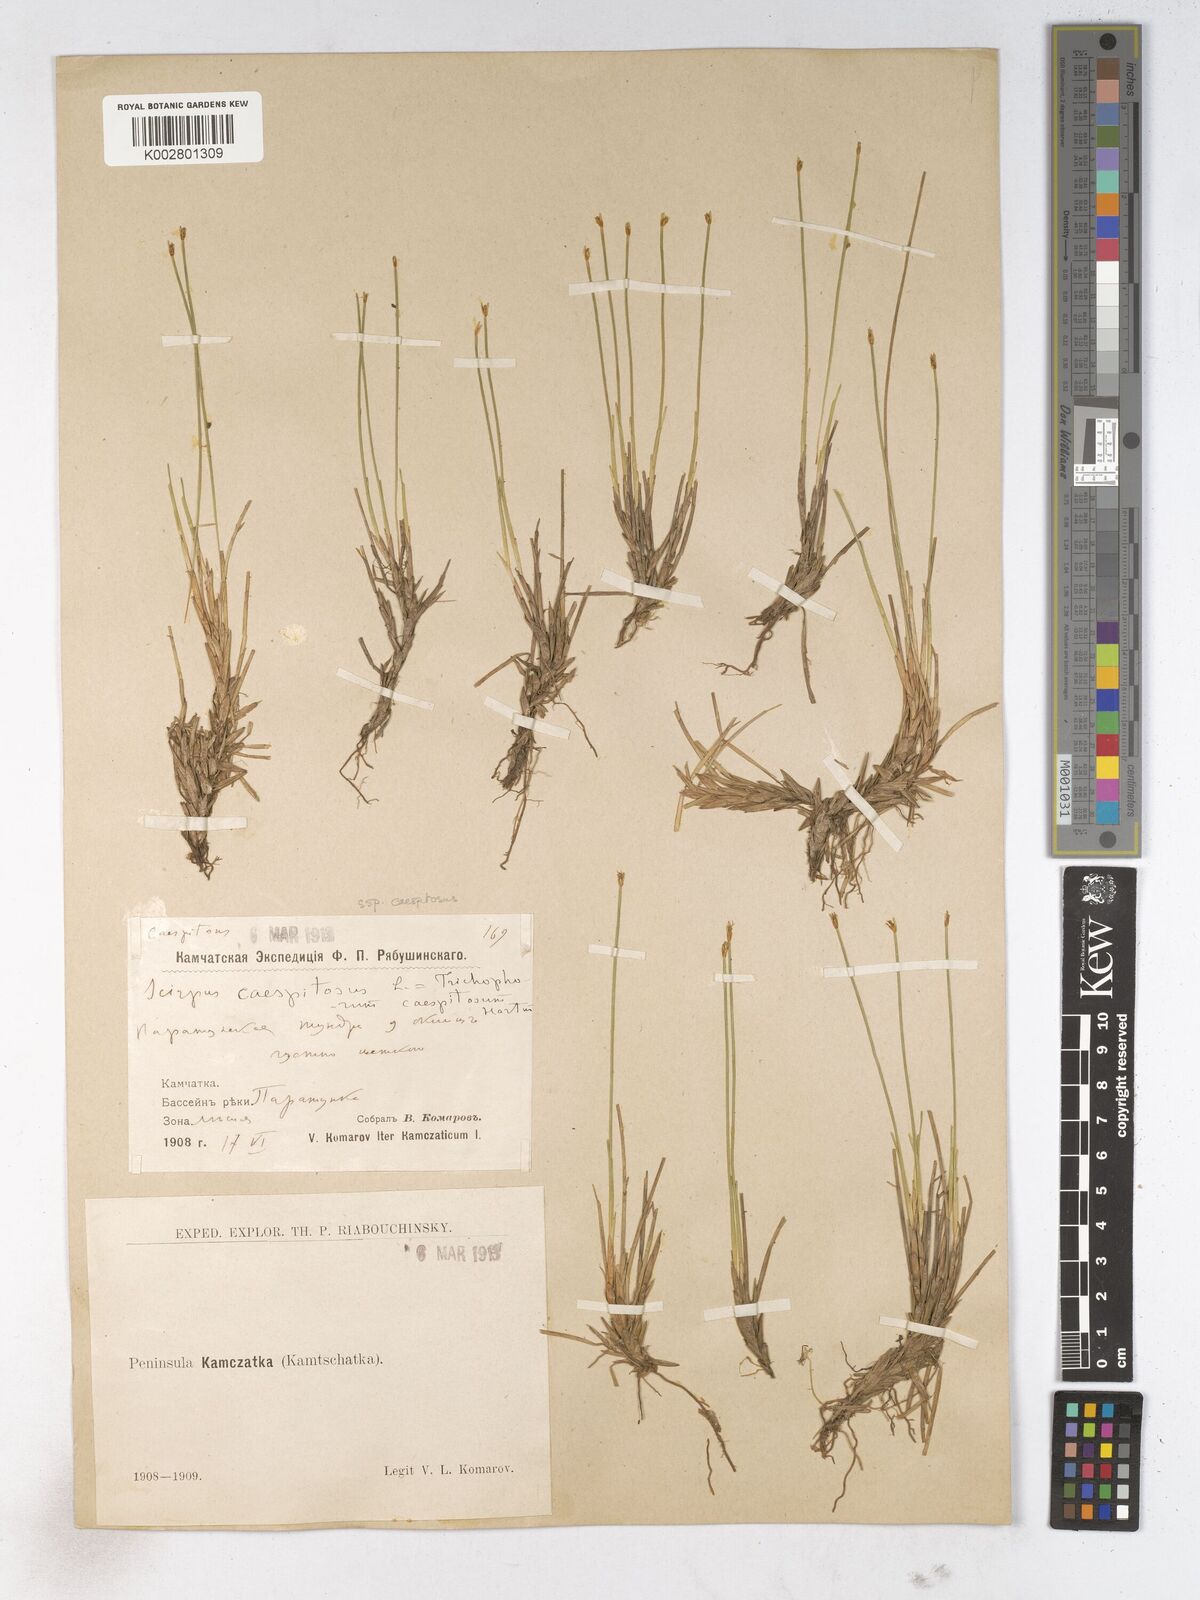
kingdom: Plantae
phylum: Tracheophyta
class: Liliopsida
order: Poales
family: Cyperaceae
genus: Trichophorum
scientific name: Trichophorum cespitosum
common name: Cespitose bulrush
